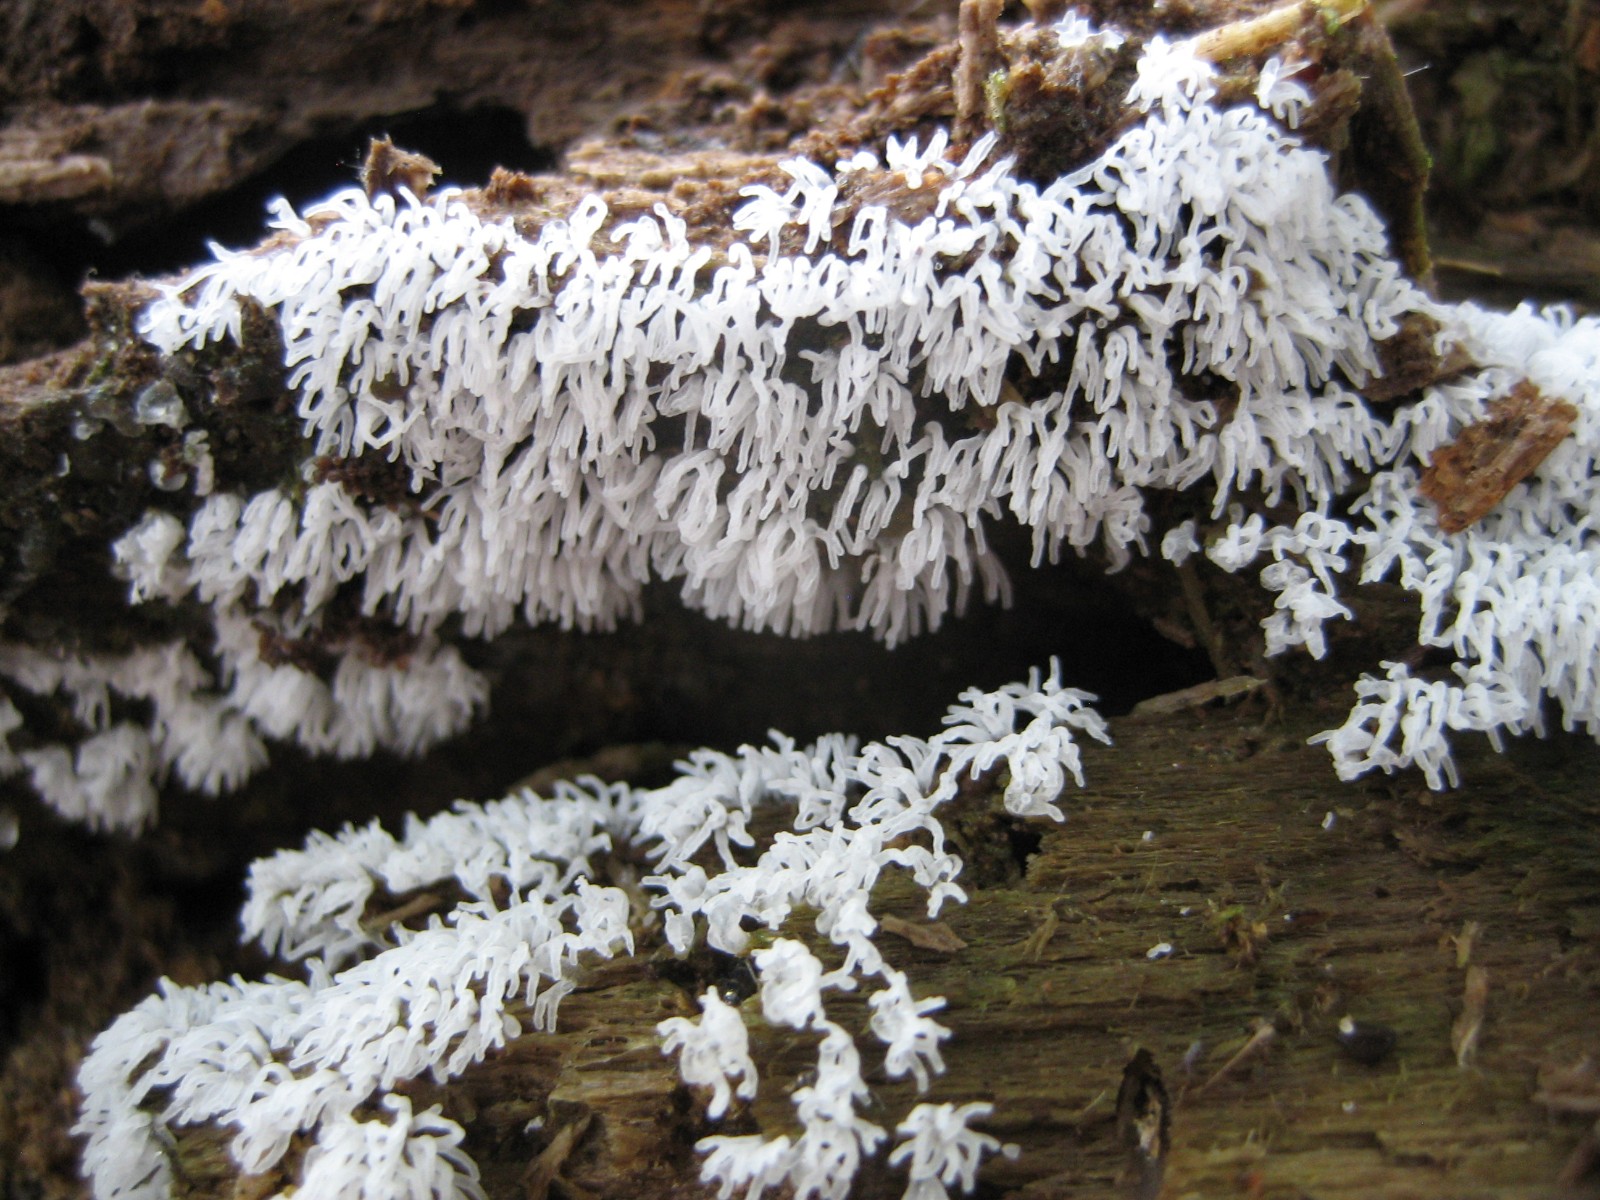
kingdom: Protozoa
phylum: Mycetozoa
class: Protosteliomycetes
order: Ceratiomyxales
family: Ceratiomyxaceae
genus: Ceratiomyxa
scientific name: Ceratiomyxa fruticulosa
